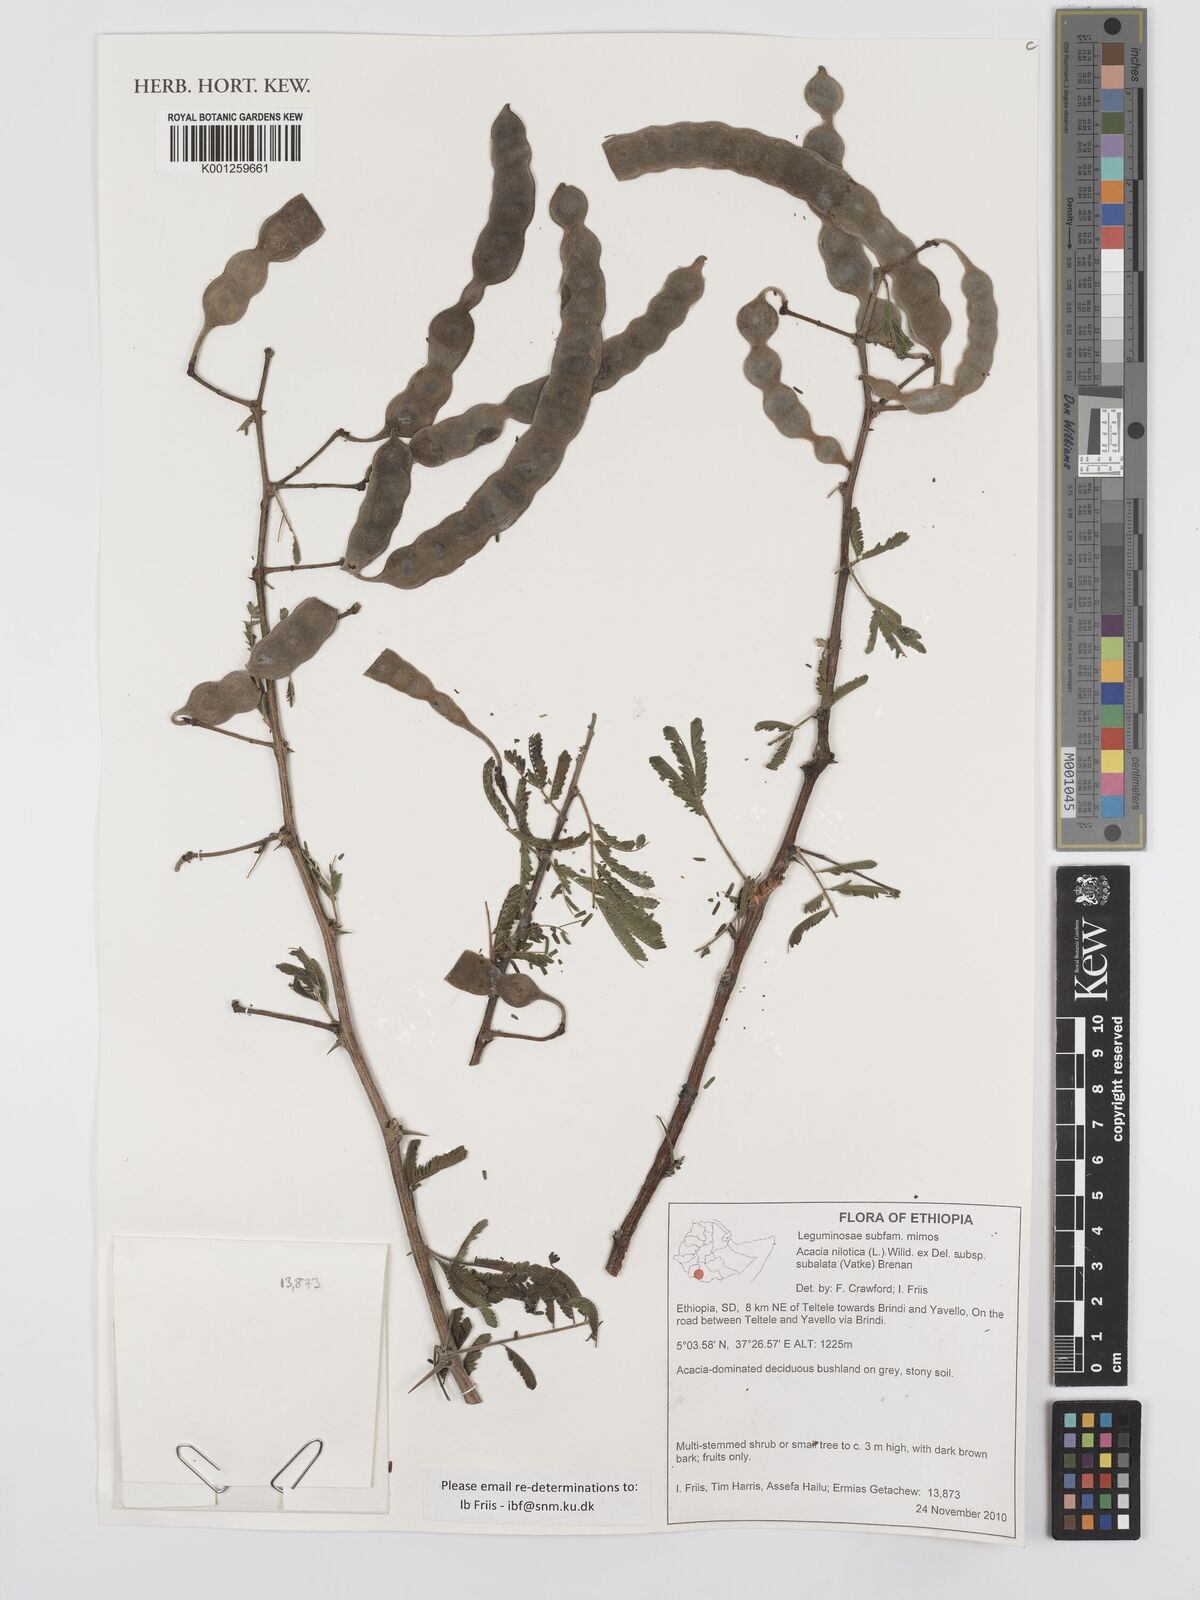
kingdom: Plantae
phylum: Tracheophyta
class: Magnoliopsida
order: Fabales
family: Fabaceae
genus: Vachellia
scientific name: Vachellia nilotica
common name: Arabic gumtree
